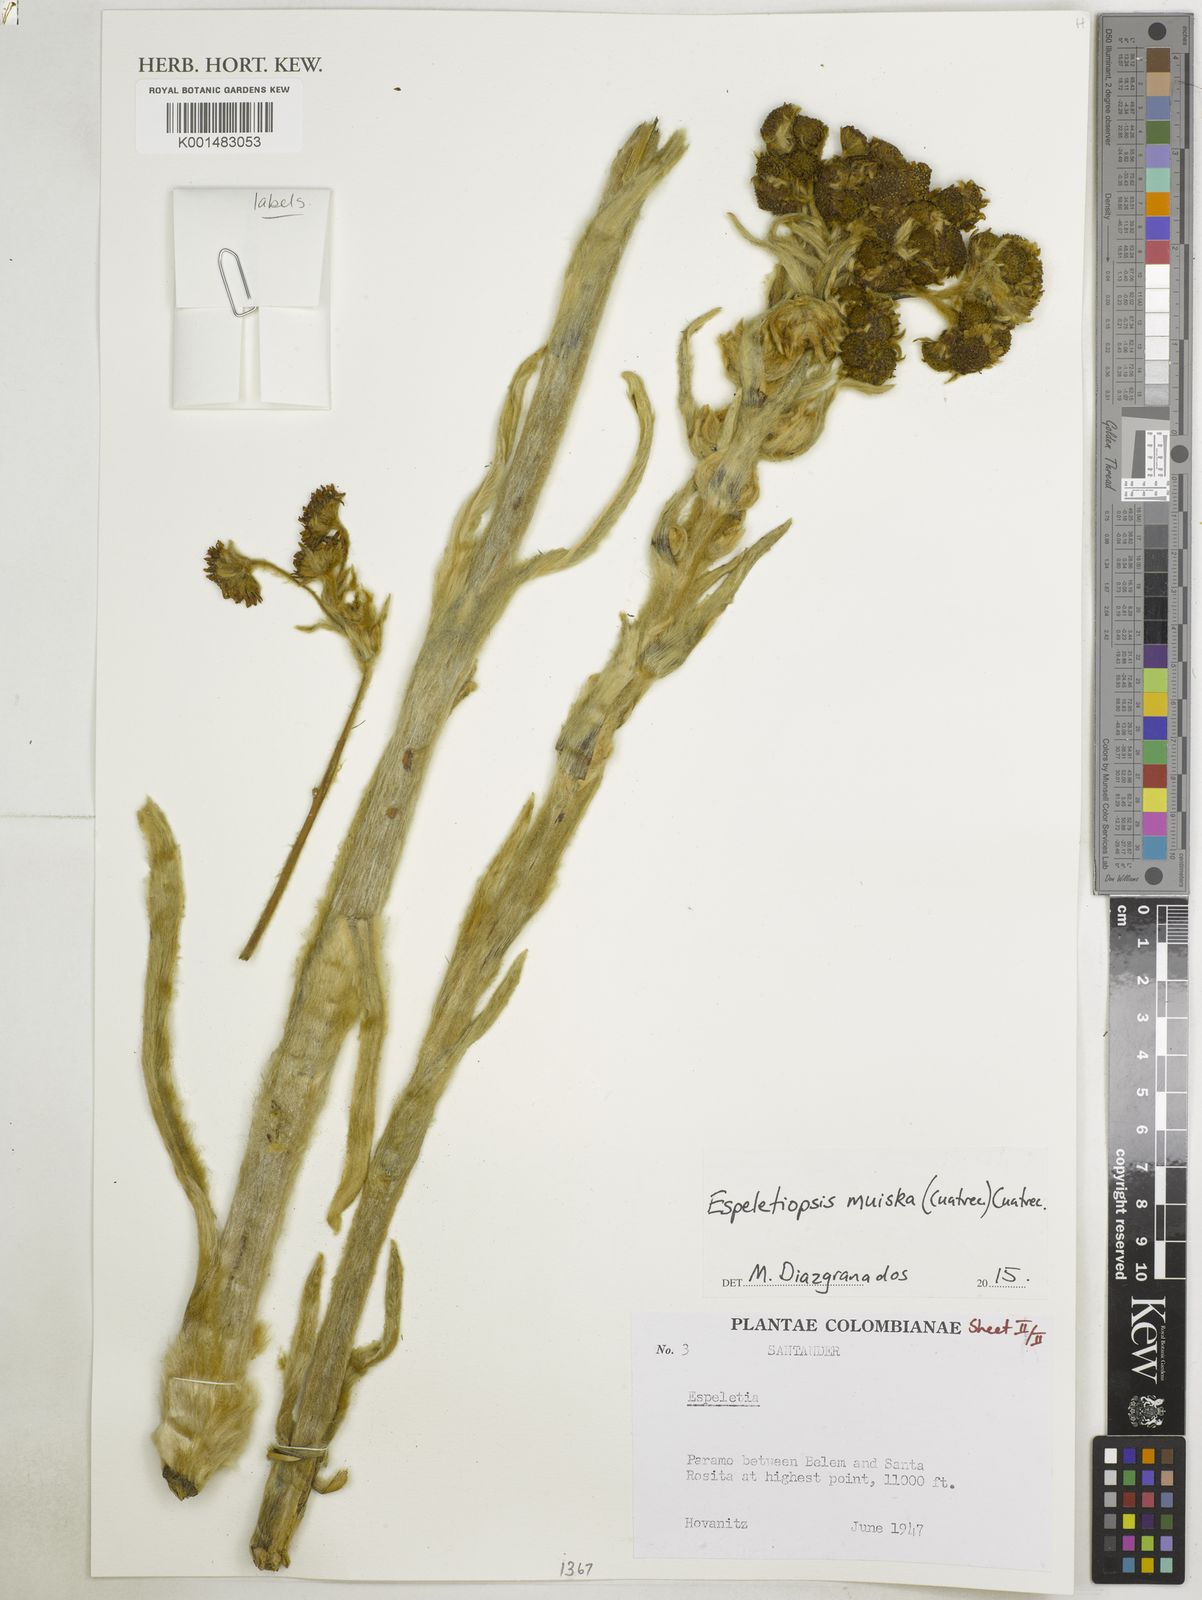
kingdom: Plantae
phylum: Tracheophyta
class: Magnoliopsida
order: Asterales
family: Asteraceae
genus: Espeletia
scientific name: Espeletia muiska
